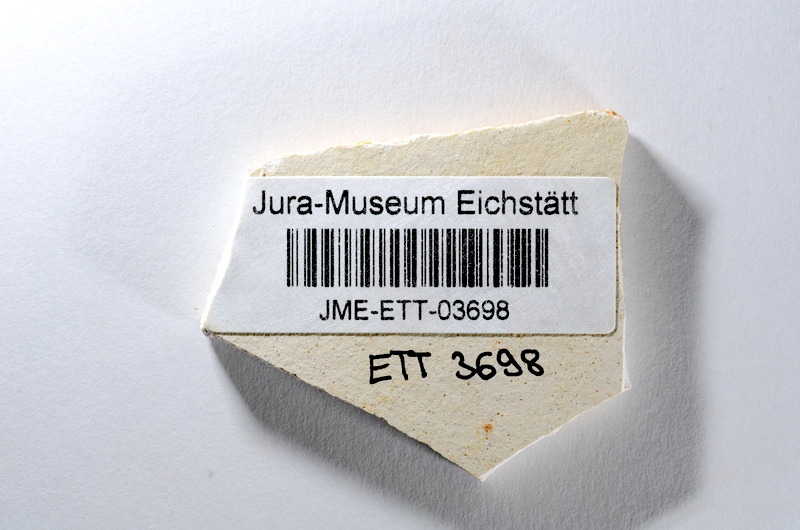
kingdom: Animalia
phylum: Chordata
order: Salmoniformes
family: Orthogonikleithridae
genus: Orthogonikleithrus
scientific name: Orthogonikleithrus hoelli
